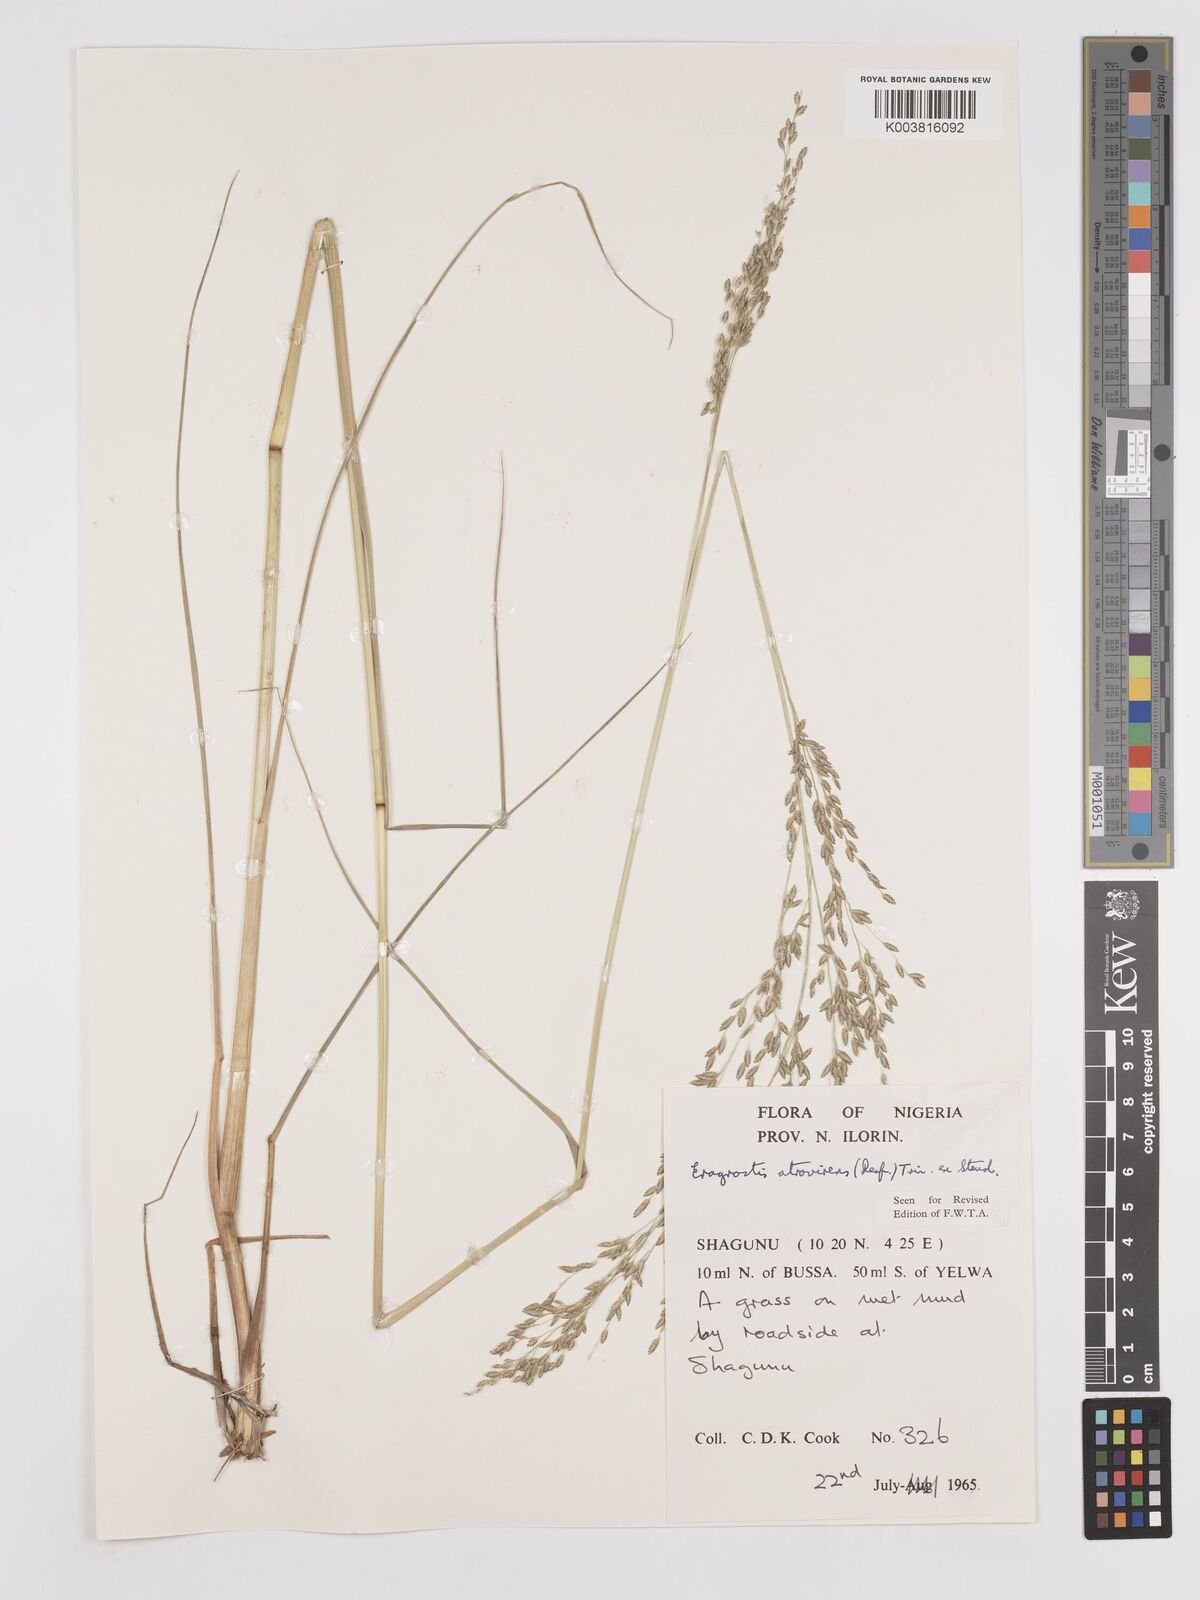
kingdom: Plantae
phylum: Tracheophyta
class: Liliopsida
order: Poales
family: Poaceae
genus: Eragrostis
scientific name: Eragrostis atrovirens
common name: Thalia lovegrass
